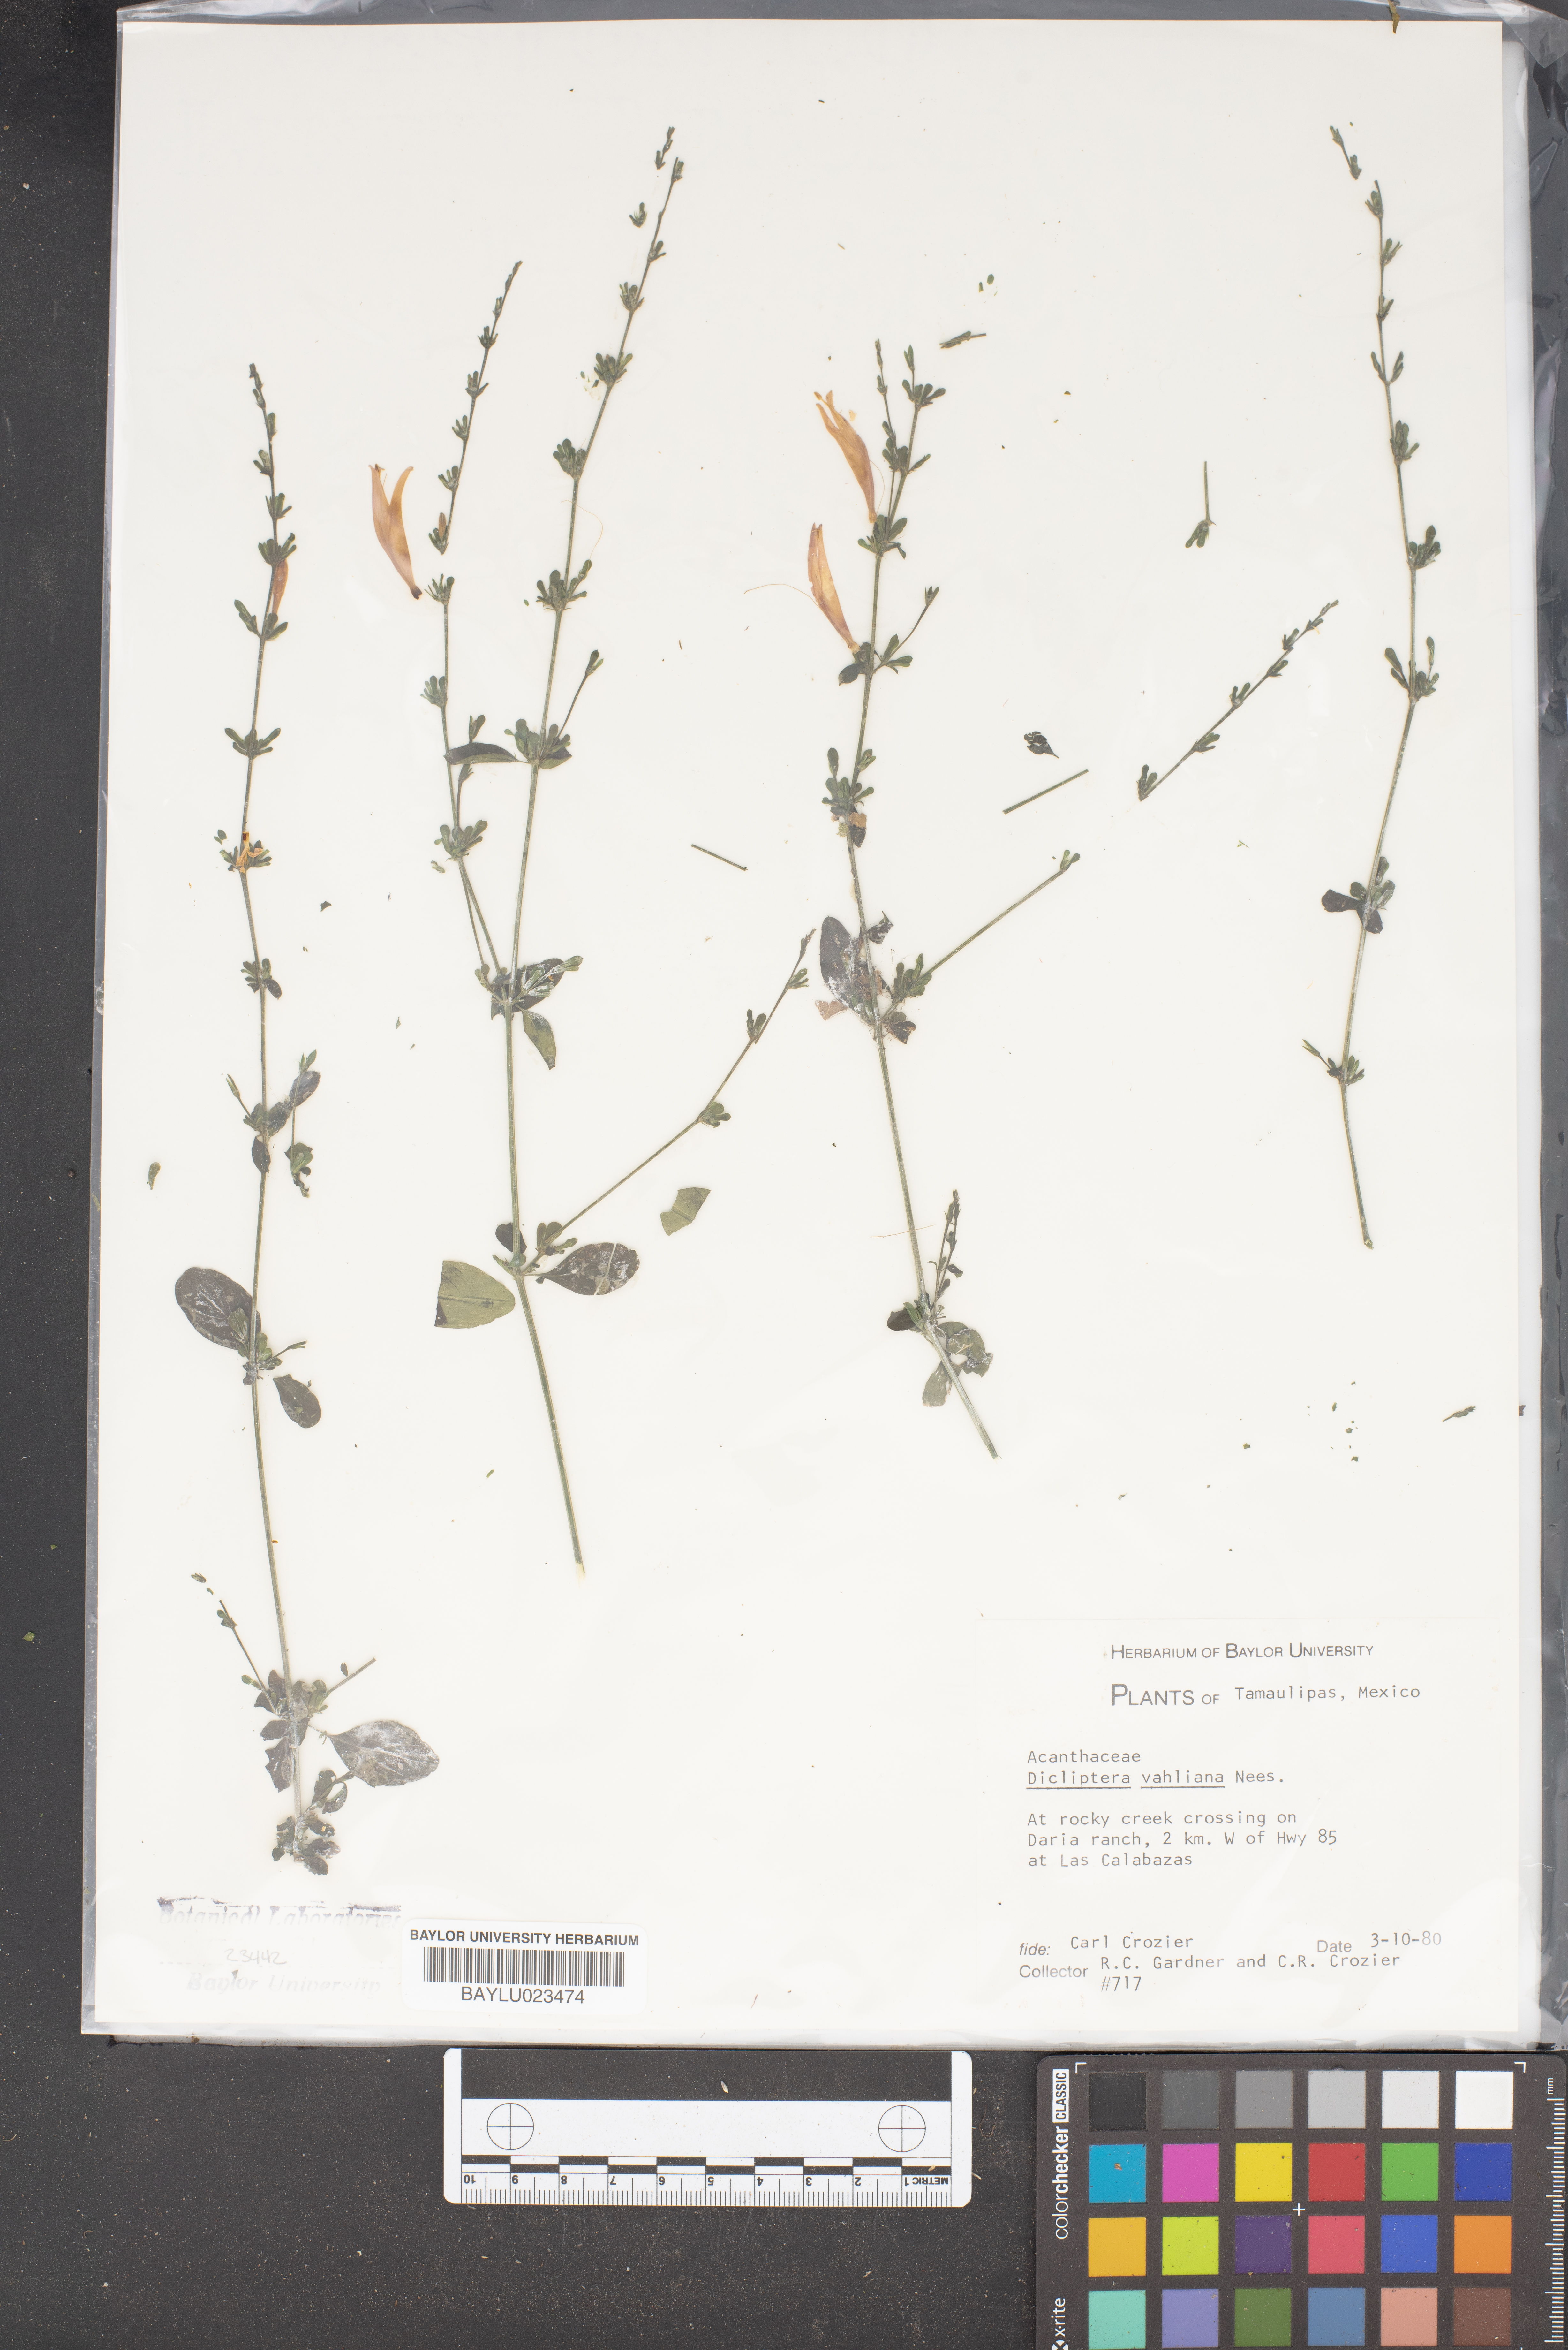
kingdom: Plantae
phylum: Tracheophyta
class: Magnoliopsida
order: Lamiales
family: Acanthaceae
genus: Dicliptera
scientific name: Dicliptera sexangularis
